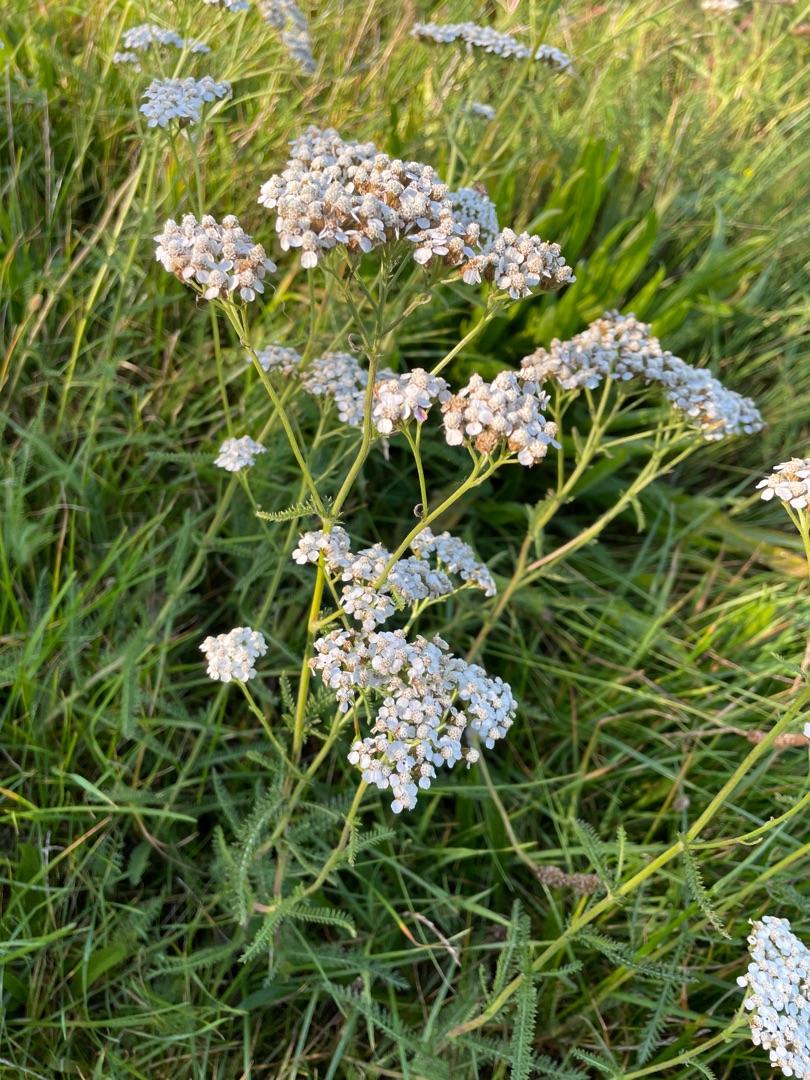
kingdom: Plantae
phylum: Tracheophyta
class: Magnoliopsida
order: Asterales
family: Asteraceae
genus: Achillea
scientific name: Achillea millefolium
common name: Almindelig røllike
